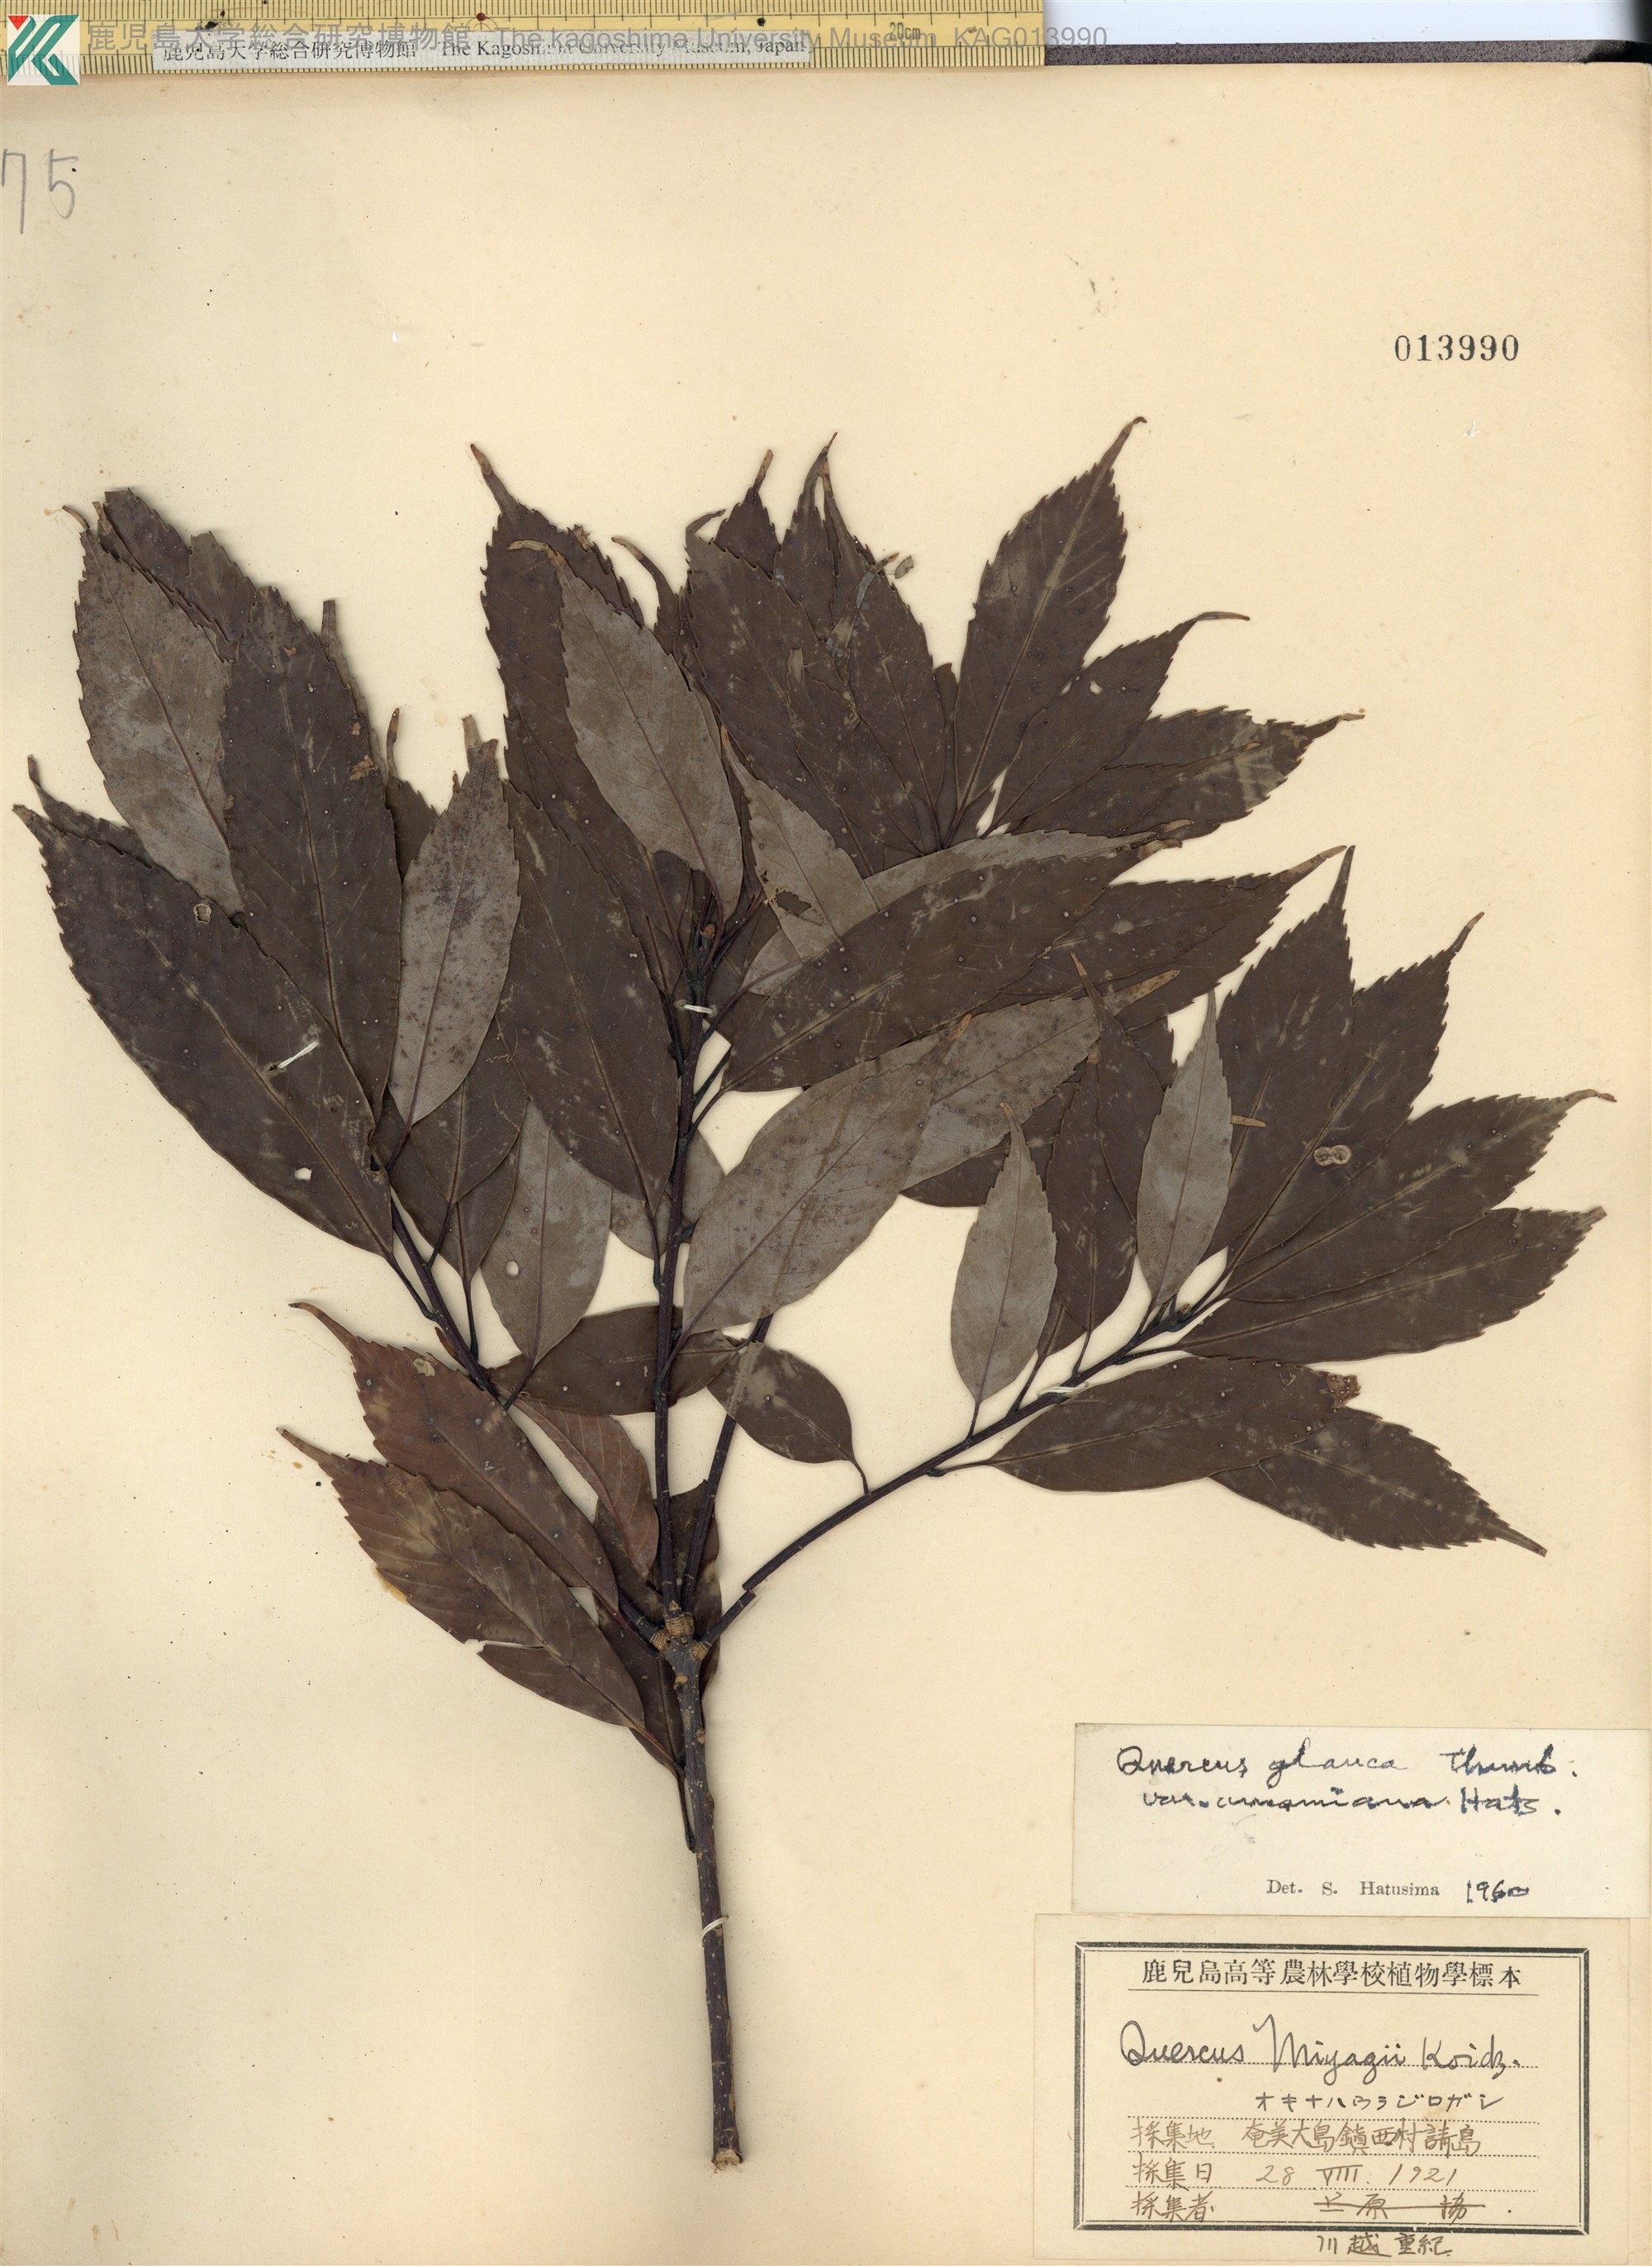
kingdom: Plantae
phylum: Tracheophyta
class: Magnoliopsida
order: Fagales
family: Fagaceae
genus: Quercus
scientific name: Quercus miyagii
